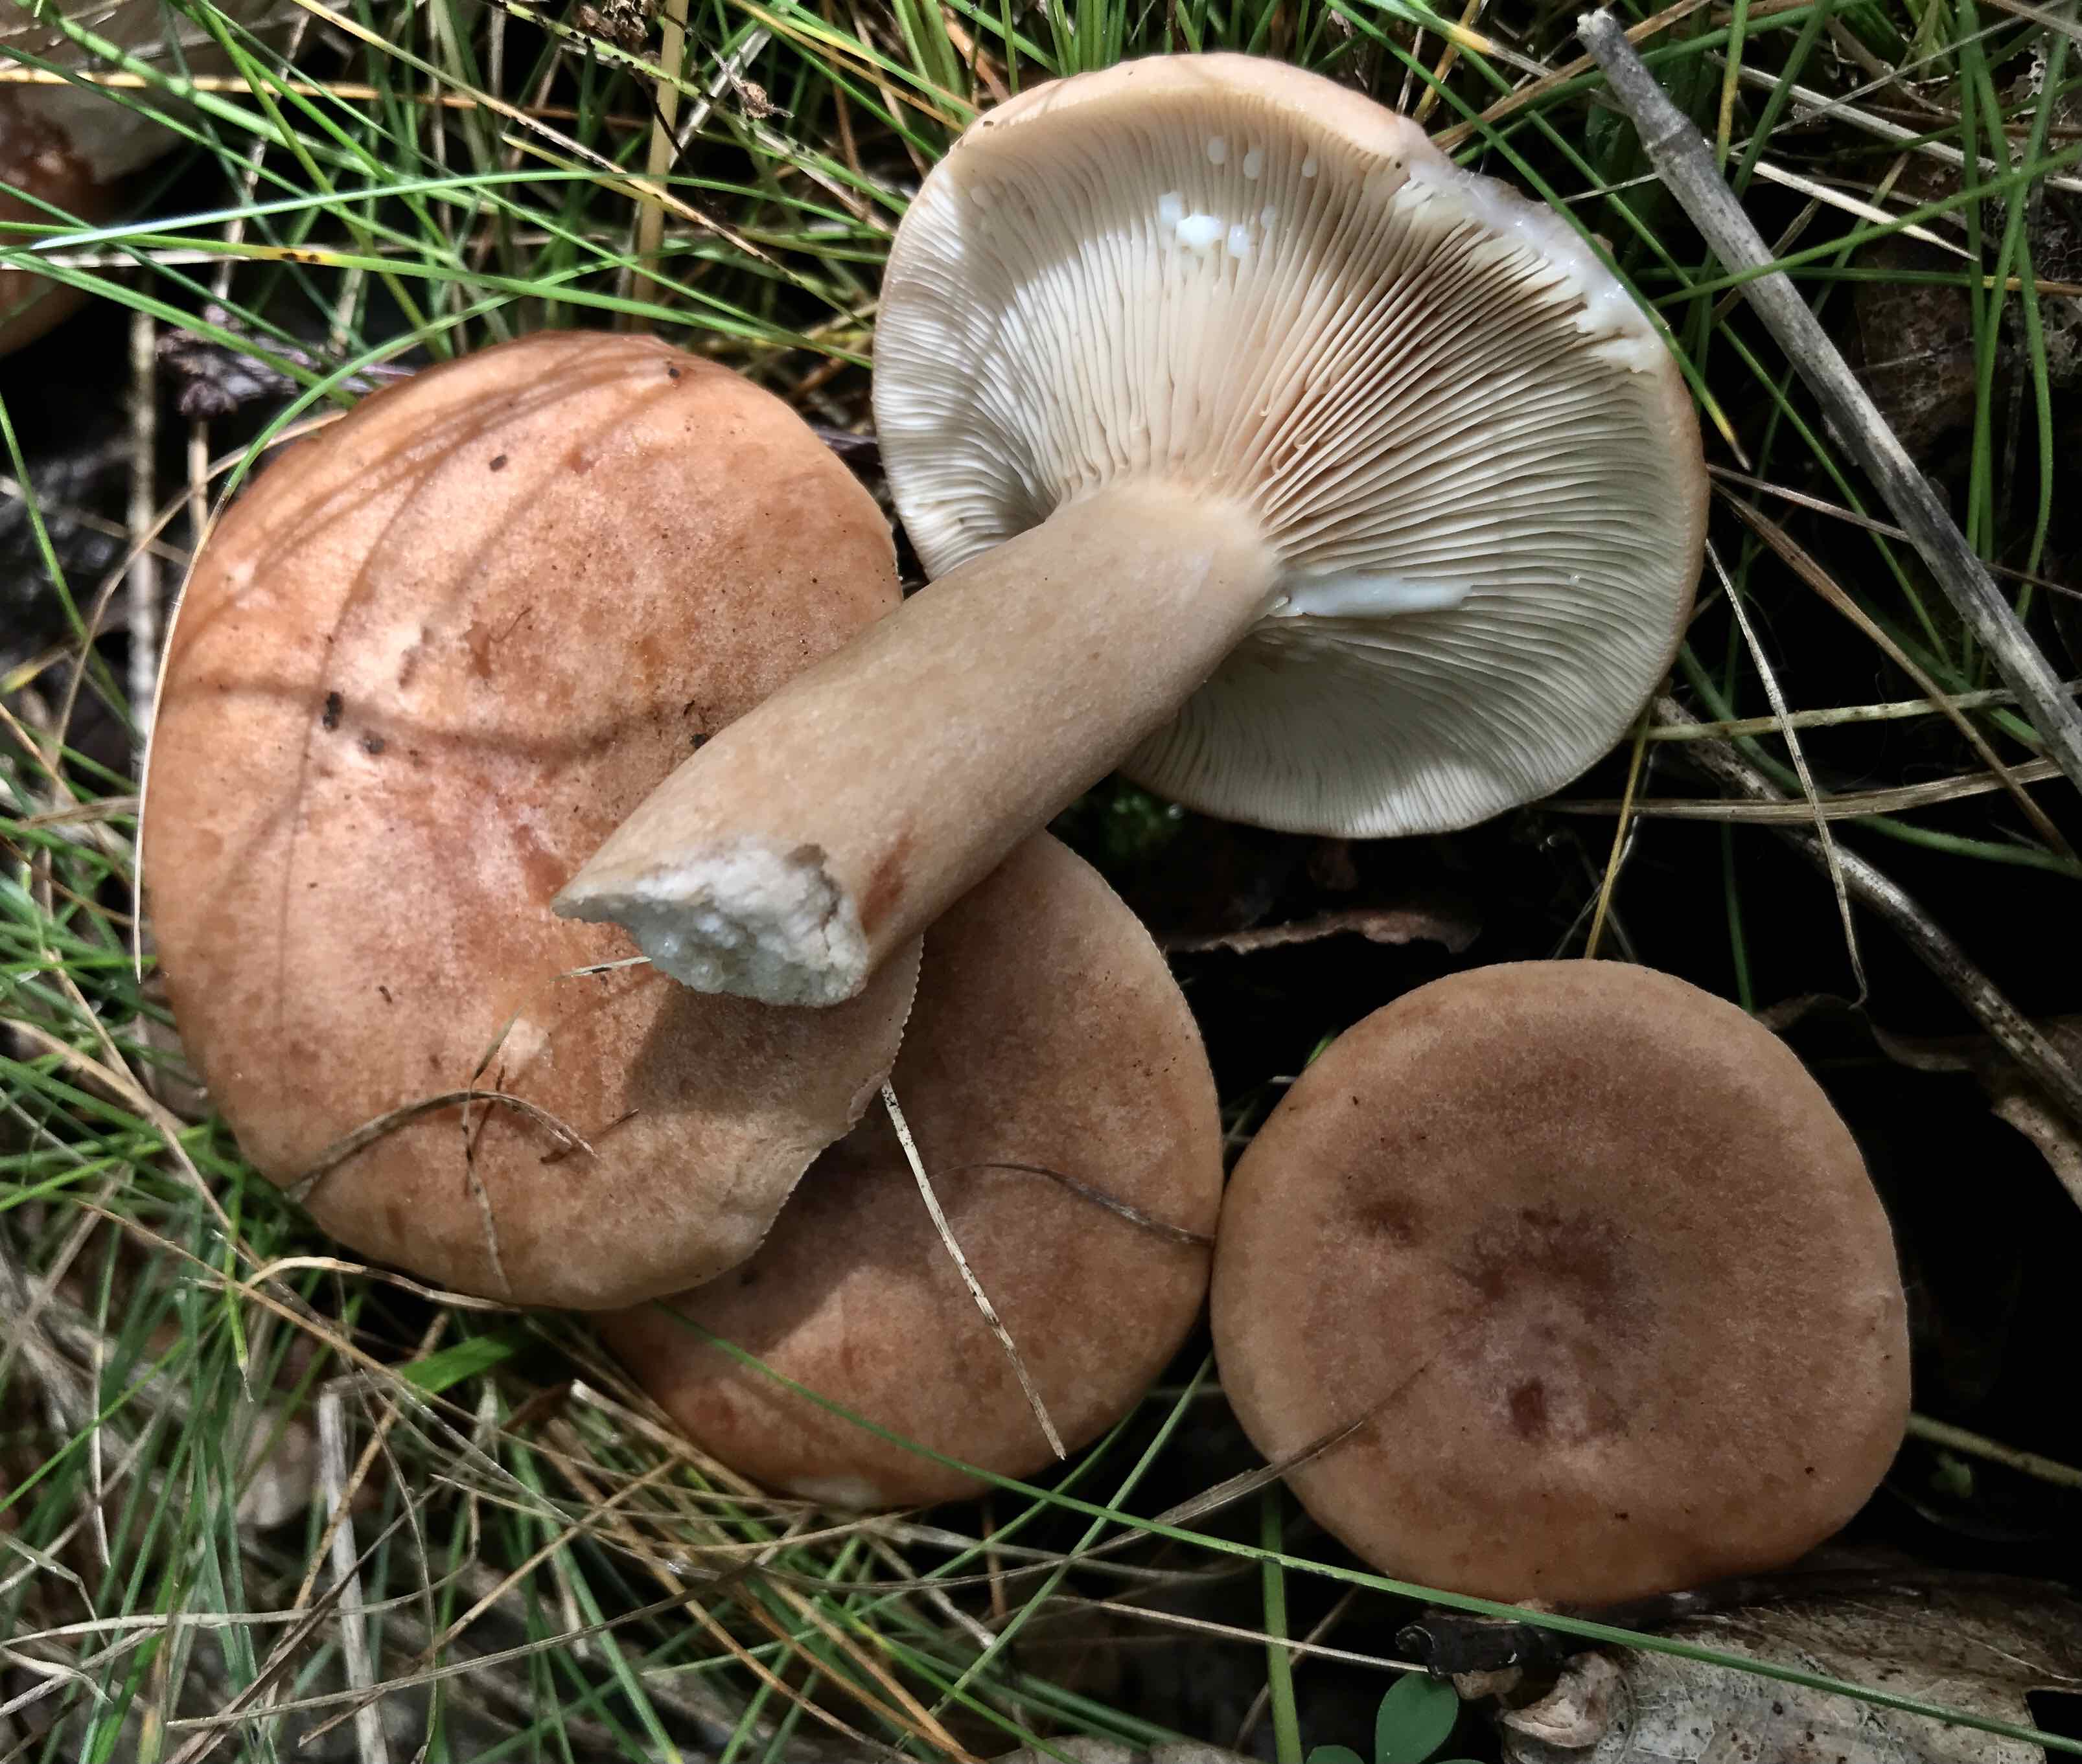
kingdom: Fungi
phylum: Basidiomycota
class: Agaricomycetes
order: Russulales
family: Russulaceae
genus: Lactarius
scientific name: Lactarius quietus
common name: ege-mælkehat
